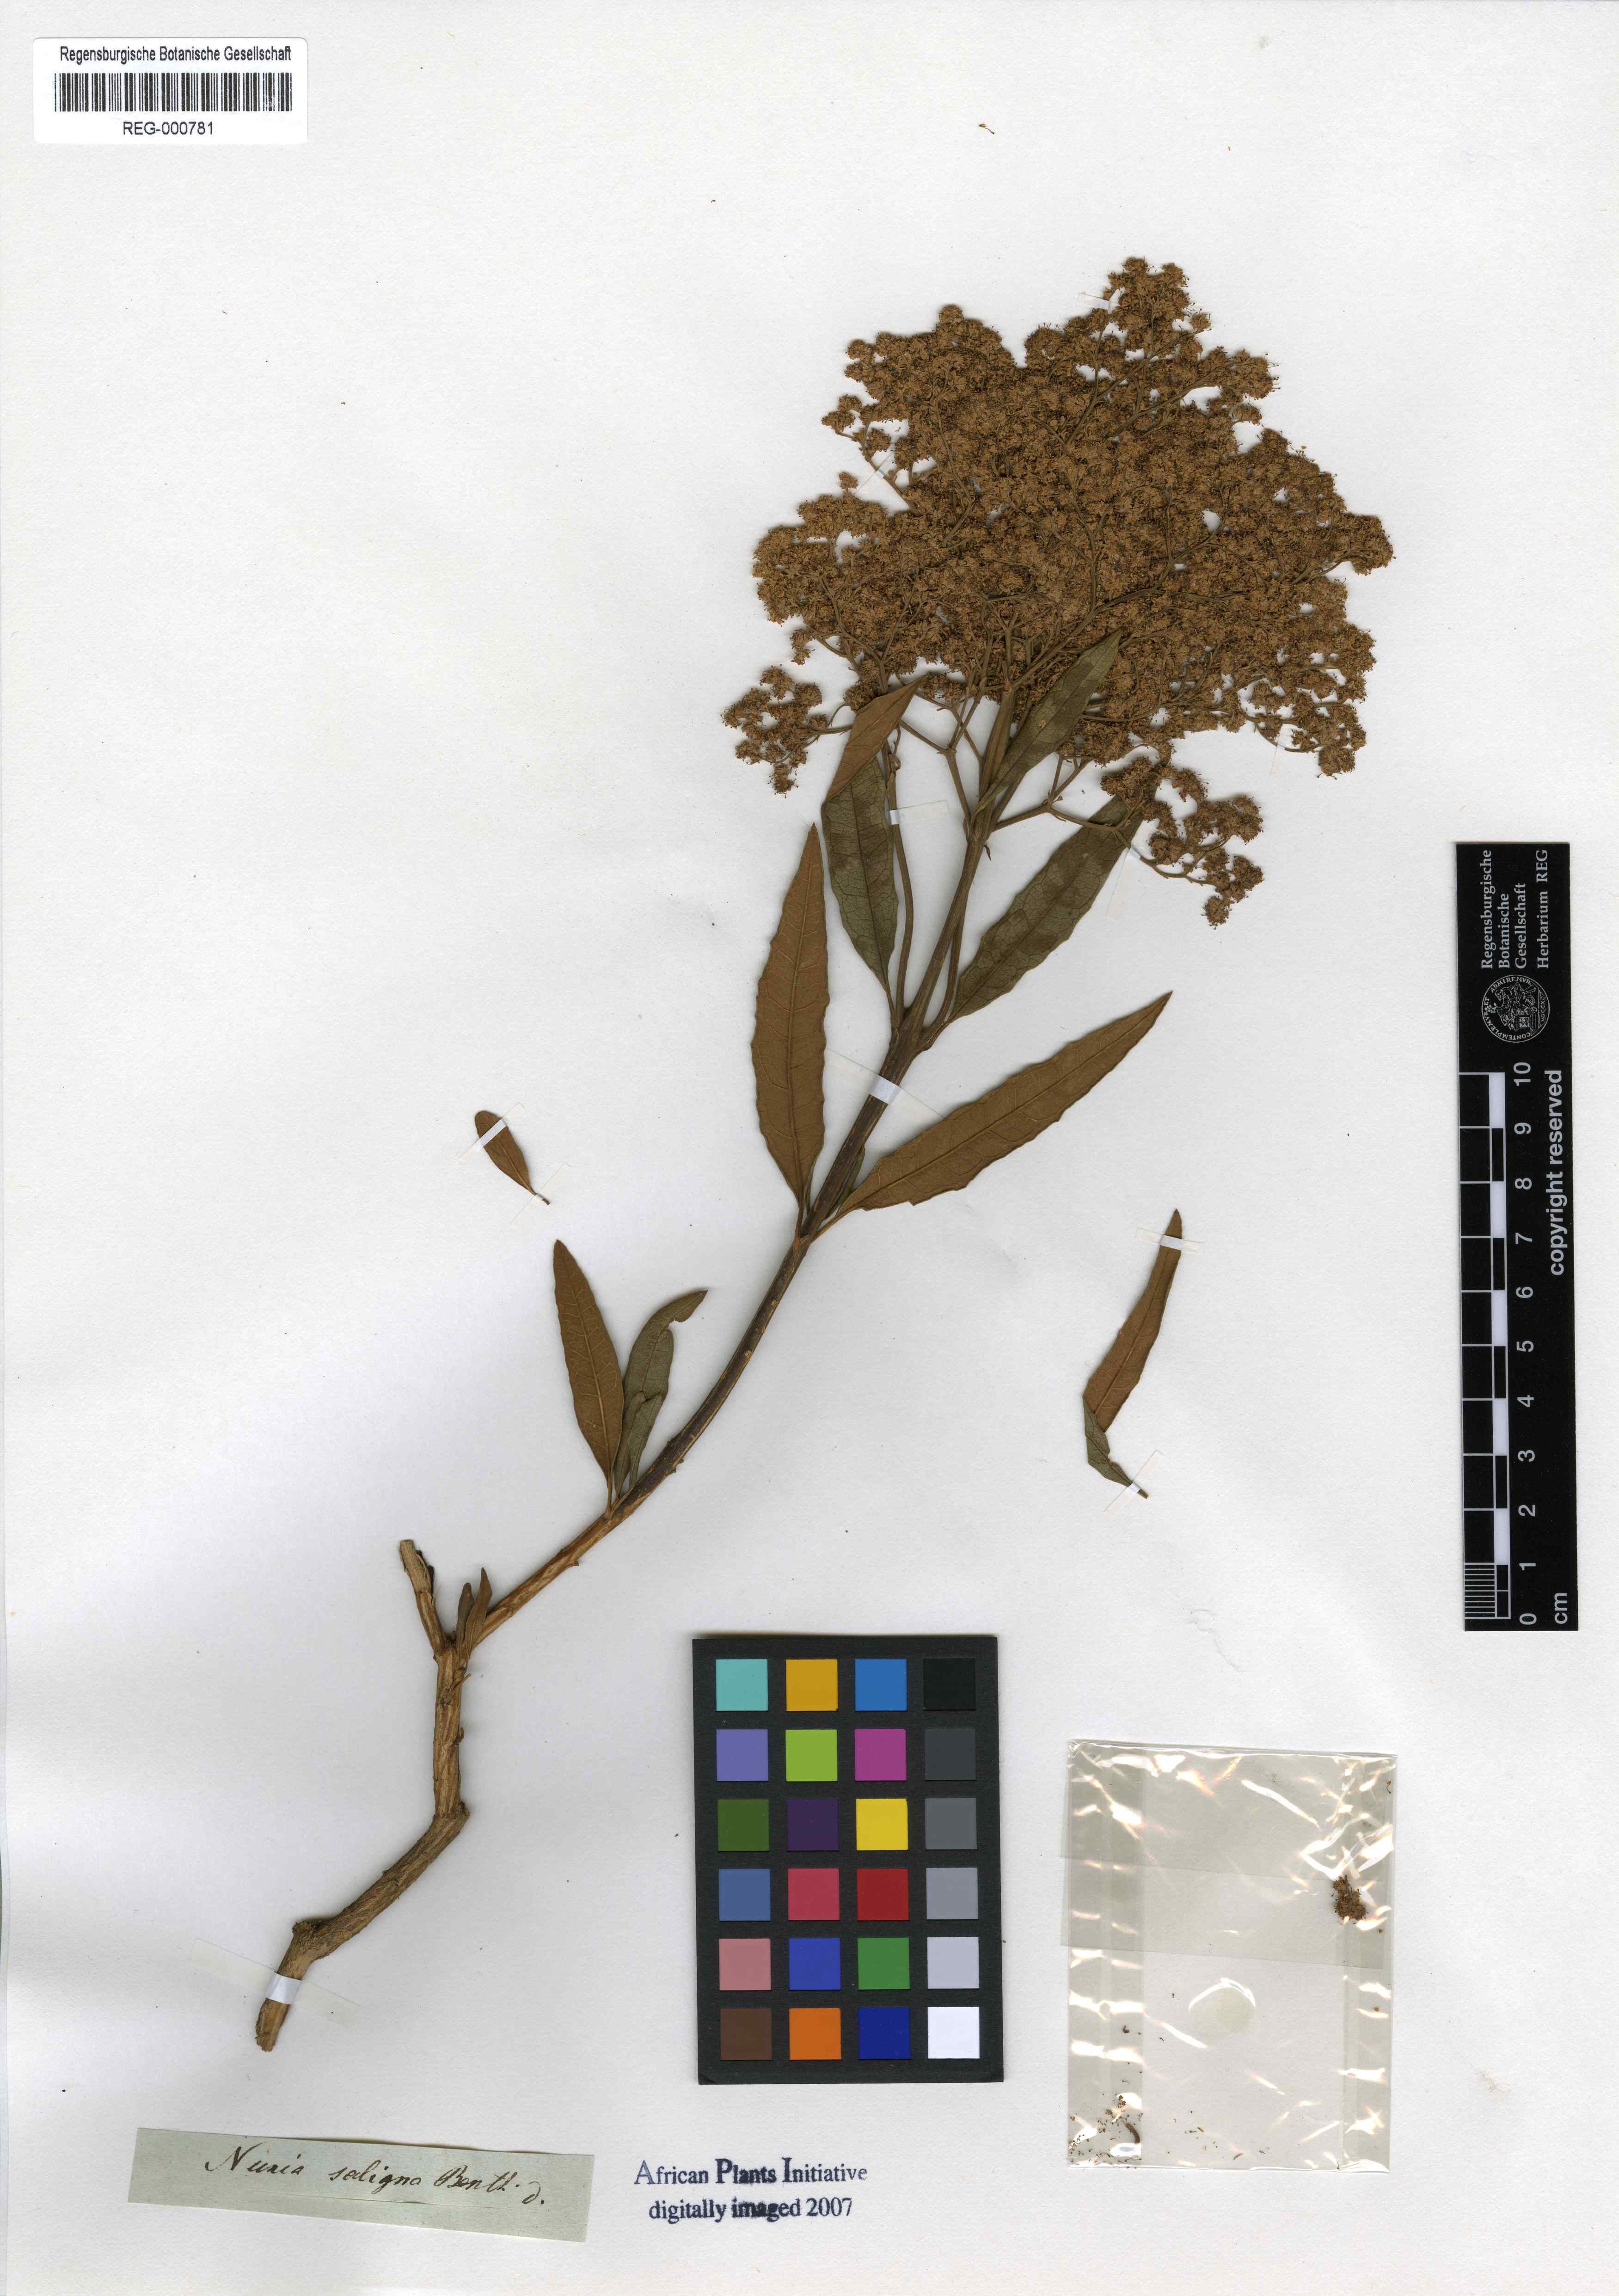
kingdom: Plantae
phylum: Tracheophyta
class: Magnoliopsida
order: Lamiales
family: Scrophulariaceae
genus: Buddleja
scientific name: Buddleja saligna
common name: False olive
